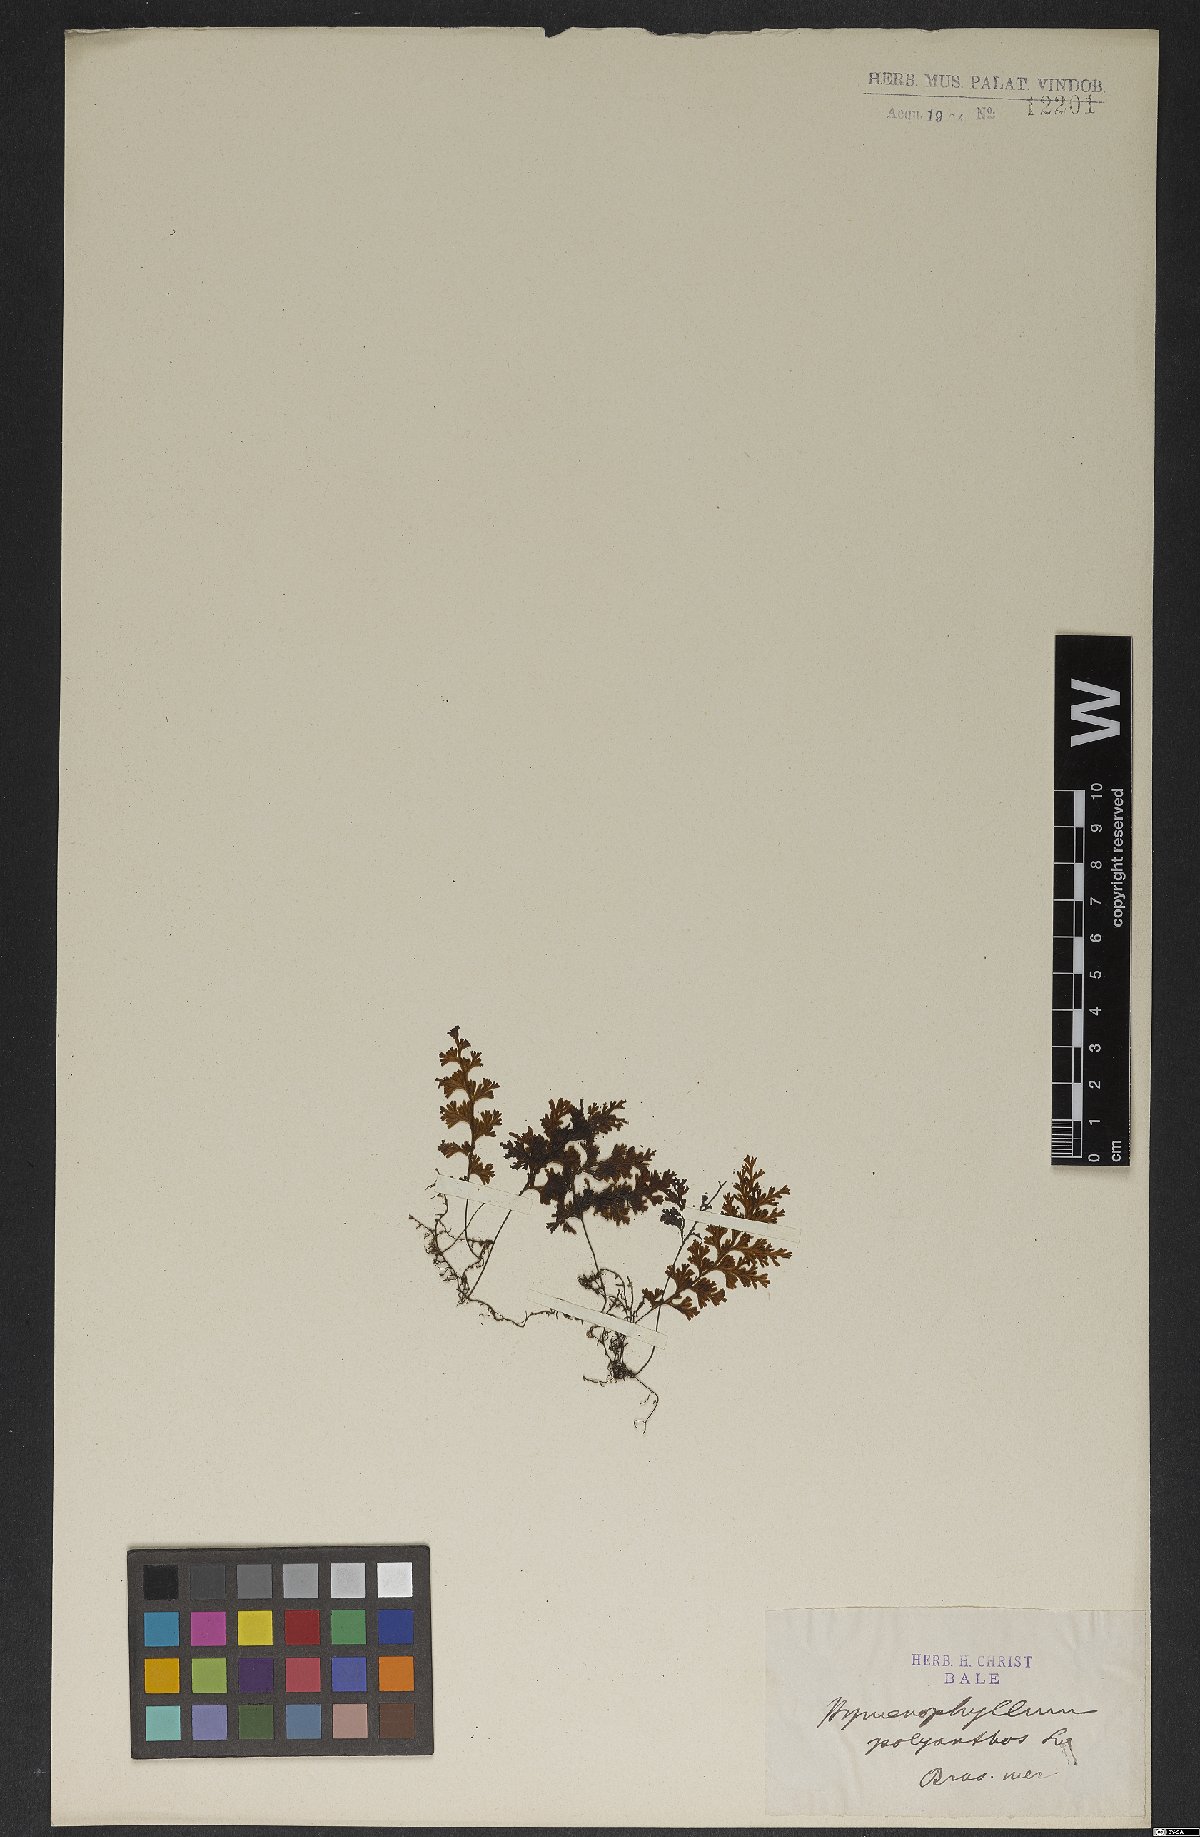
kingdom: Plantae
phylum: Tracheophyta
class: Polypodiopsida
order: Hymenophyllales
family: Hymenophyllaceae
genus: Hymenophyllum
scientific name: Hymenophyllum polyanthos
